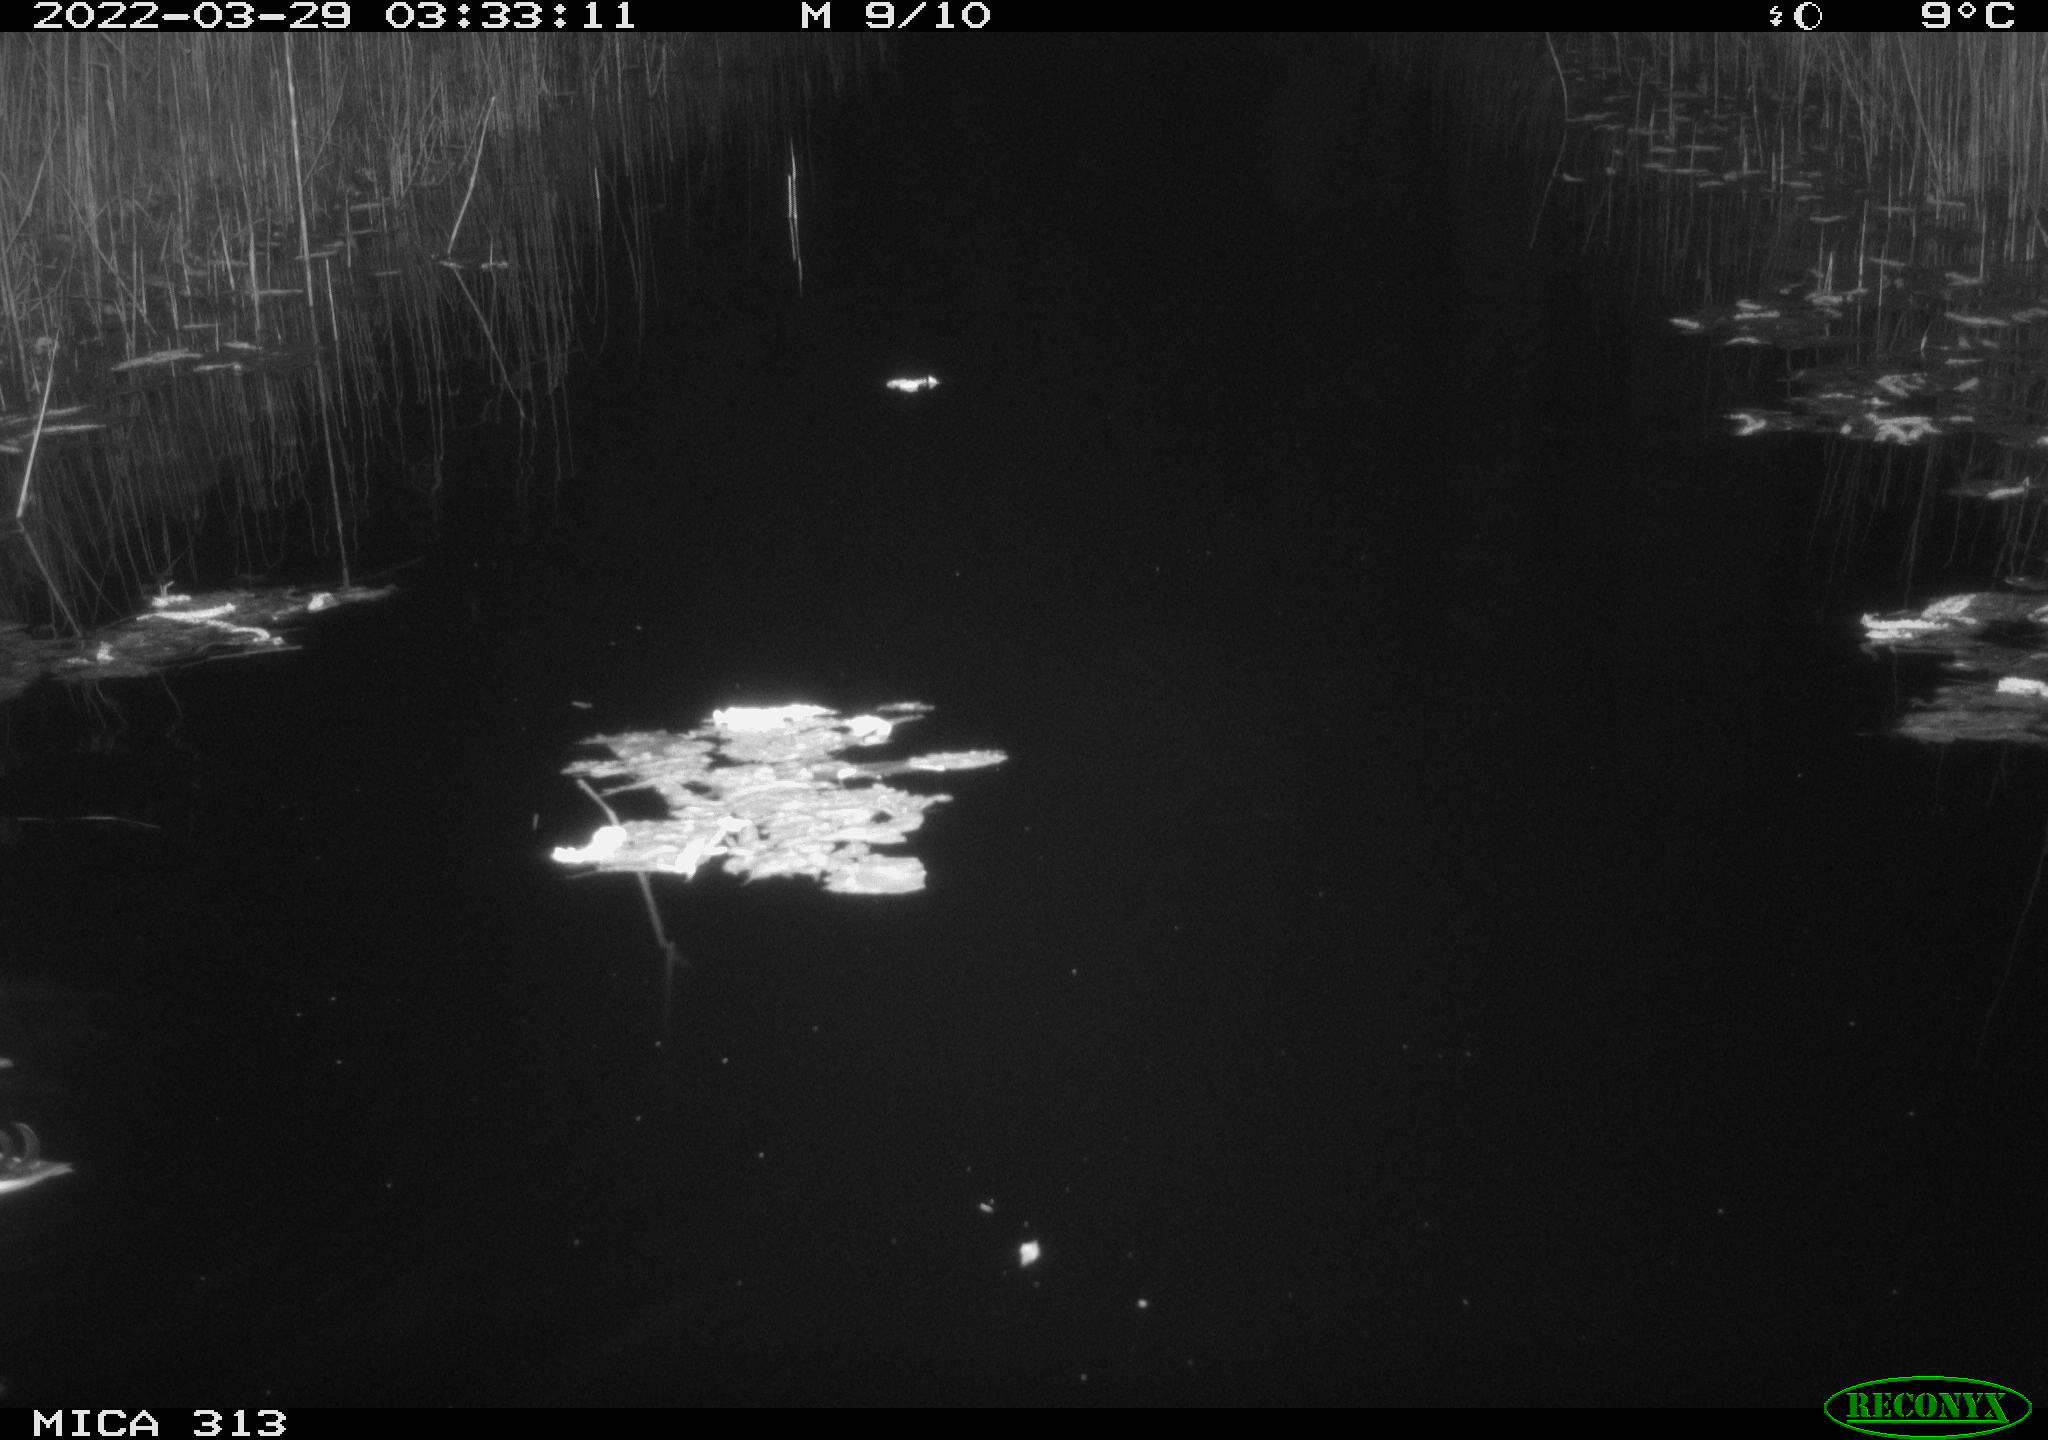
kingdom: Animalia
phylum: Chordata
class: Aves
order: Anseriformes
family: Anatidae
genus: Anas
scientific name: Anas platyrhynchos
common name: Mallard
